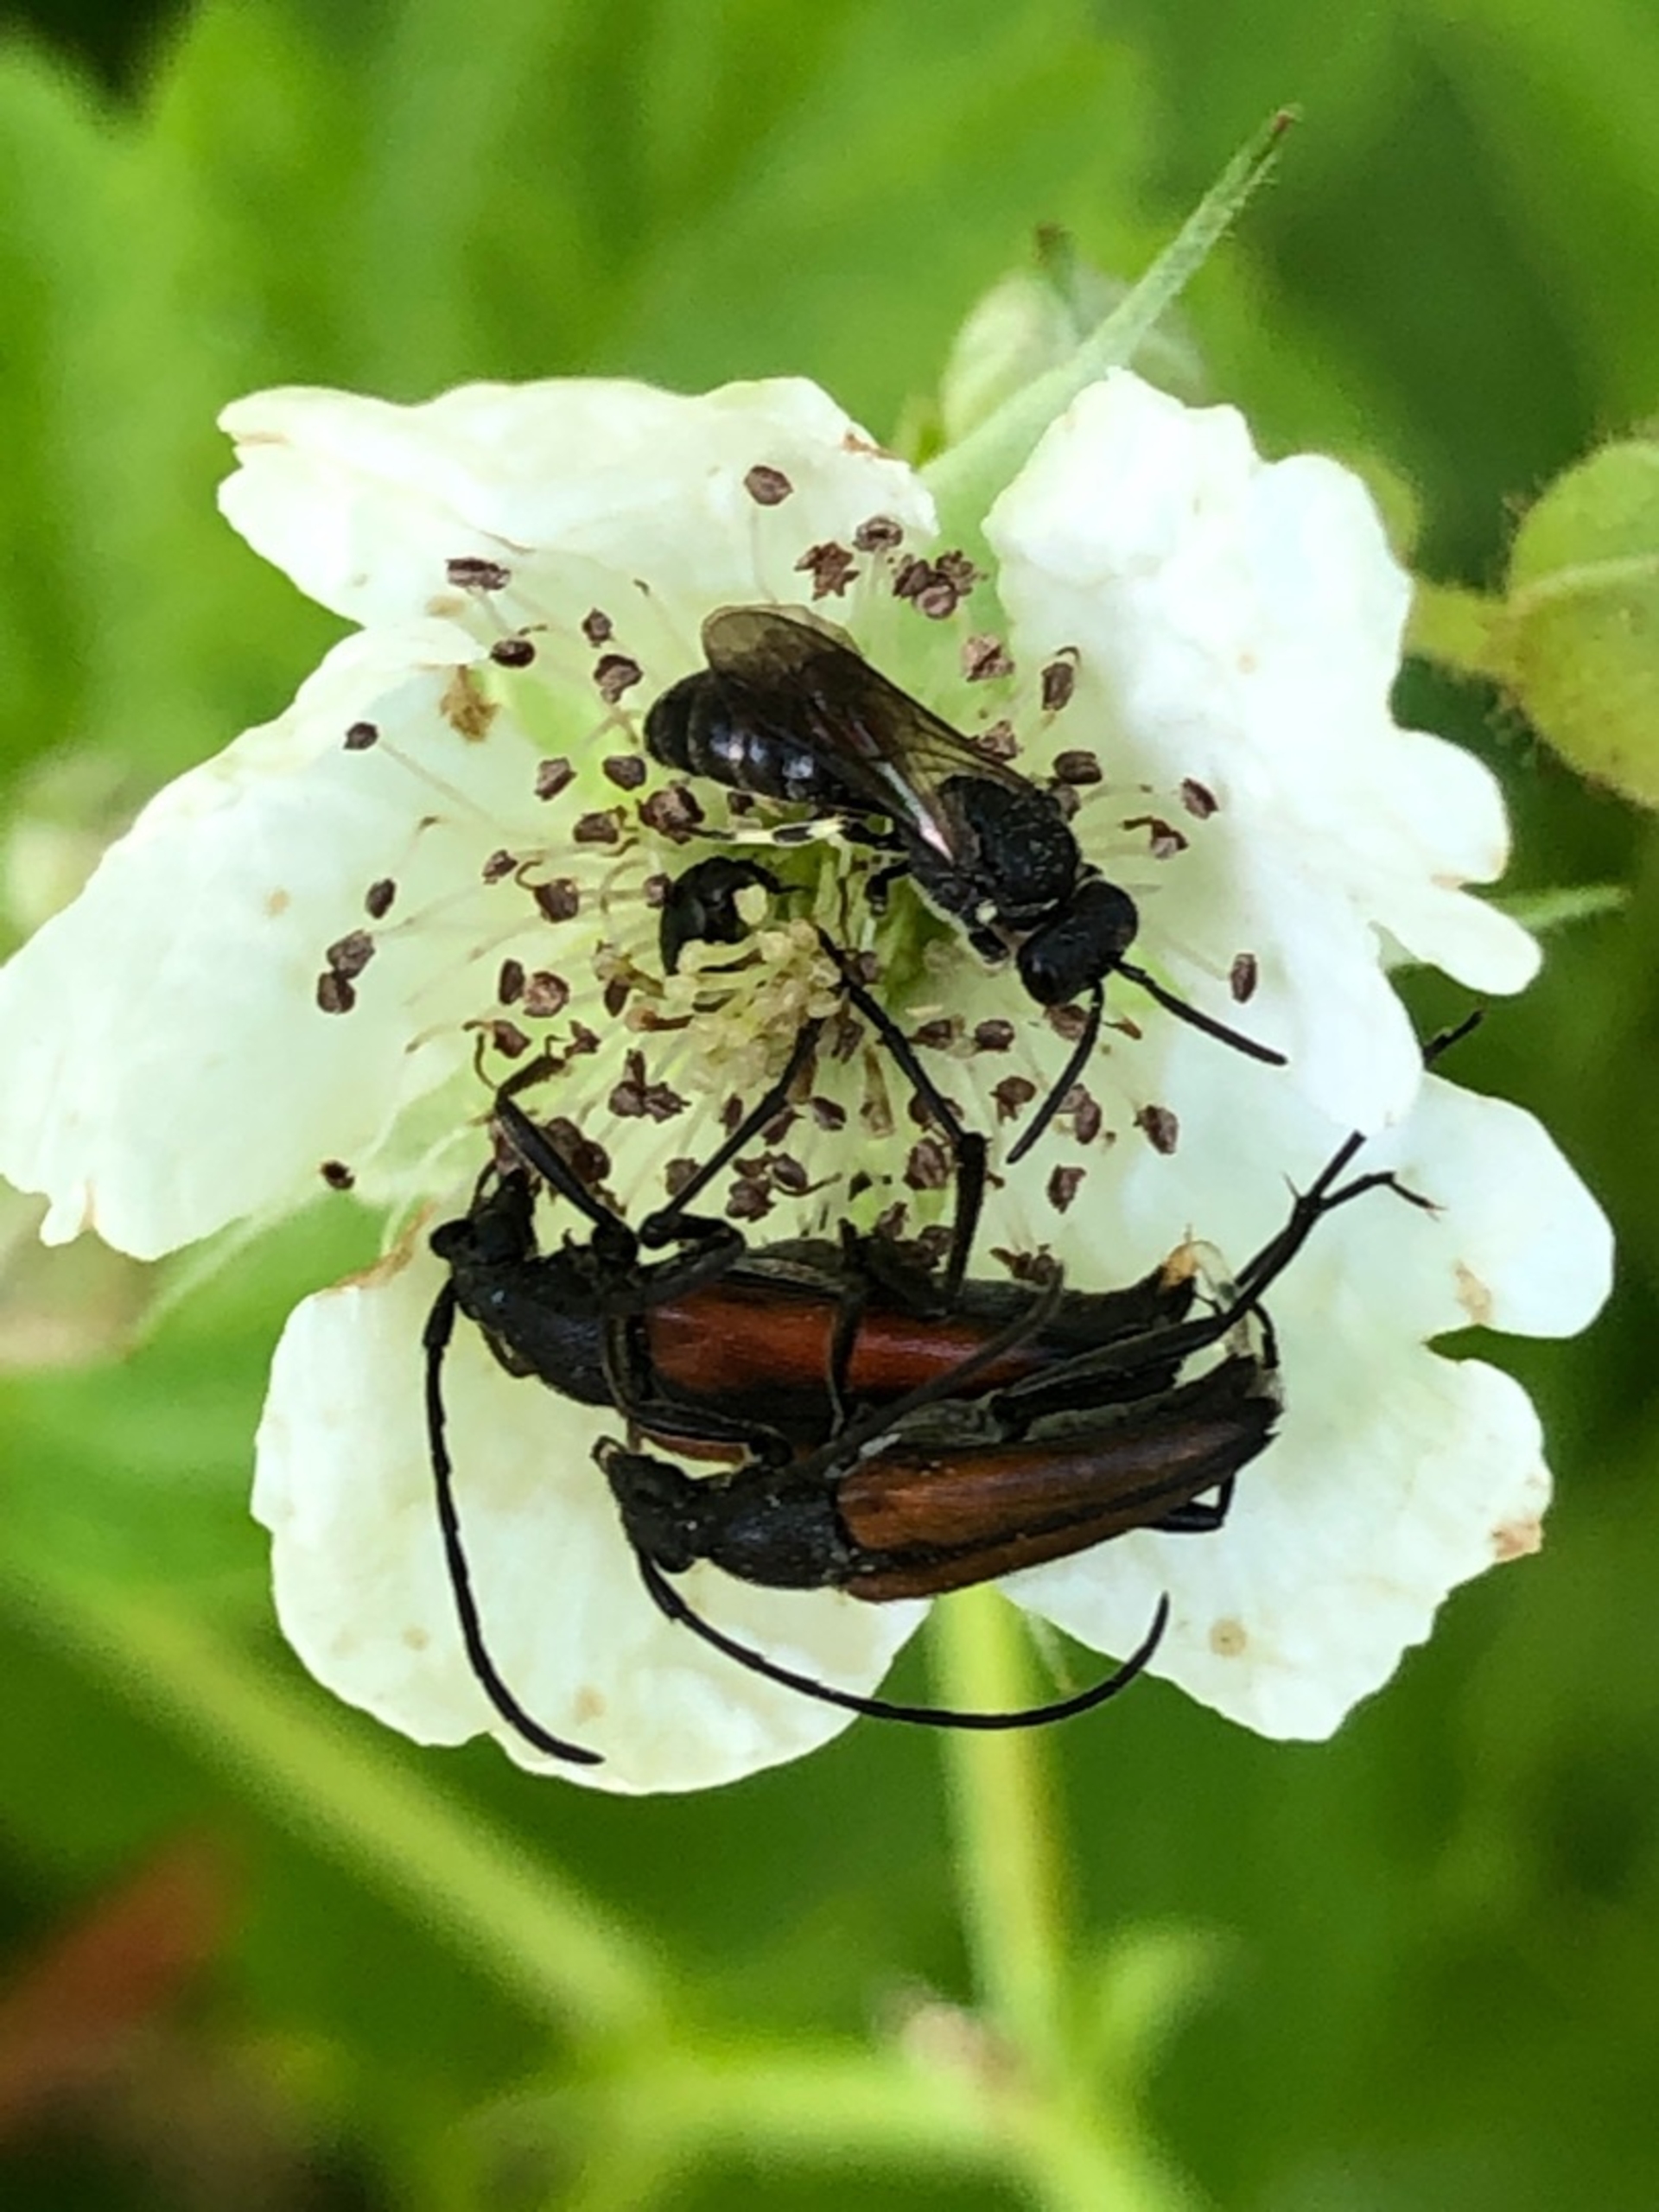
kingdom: Animalia
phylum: Arthropoda
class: Insecta
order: Coleoptera
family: Cerambycidae
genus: Stenurella
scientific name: Stenurella melanura
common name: Sortsømmet blomsterbuk
